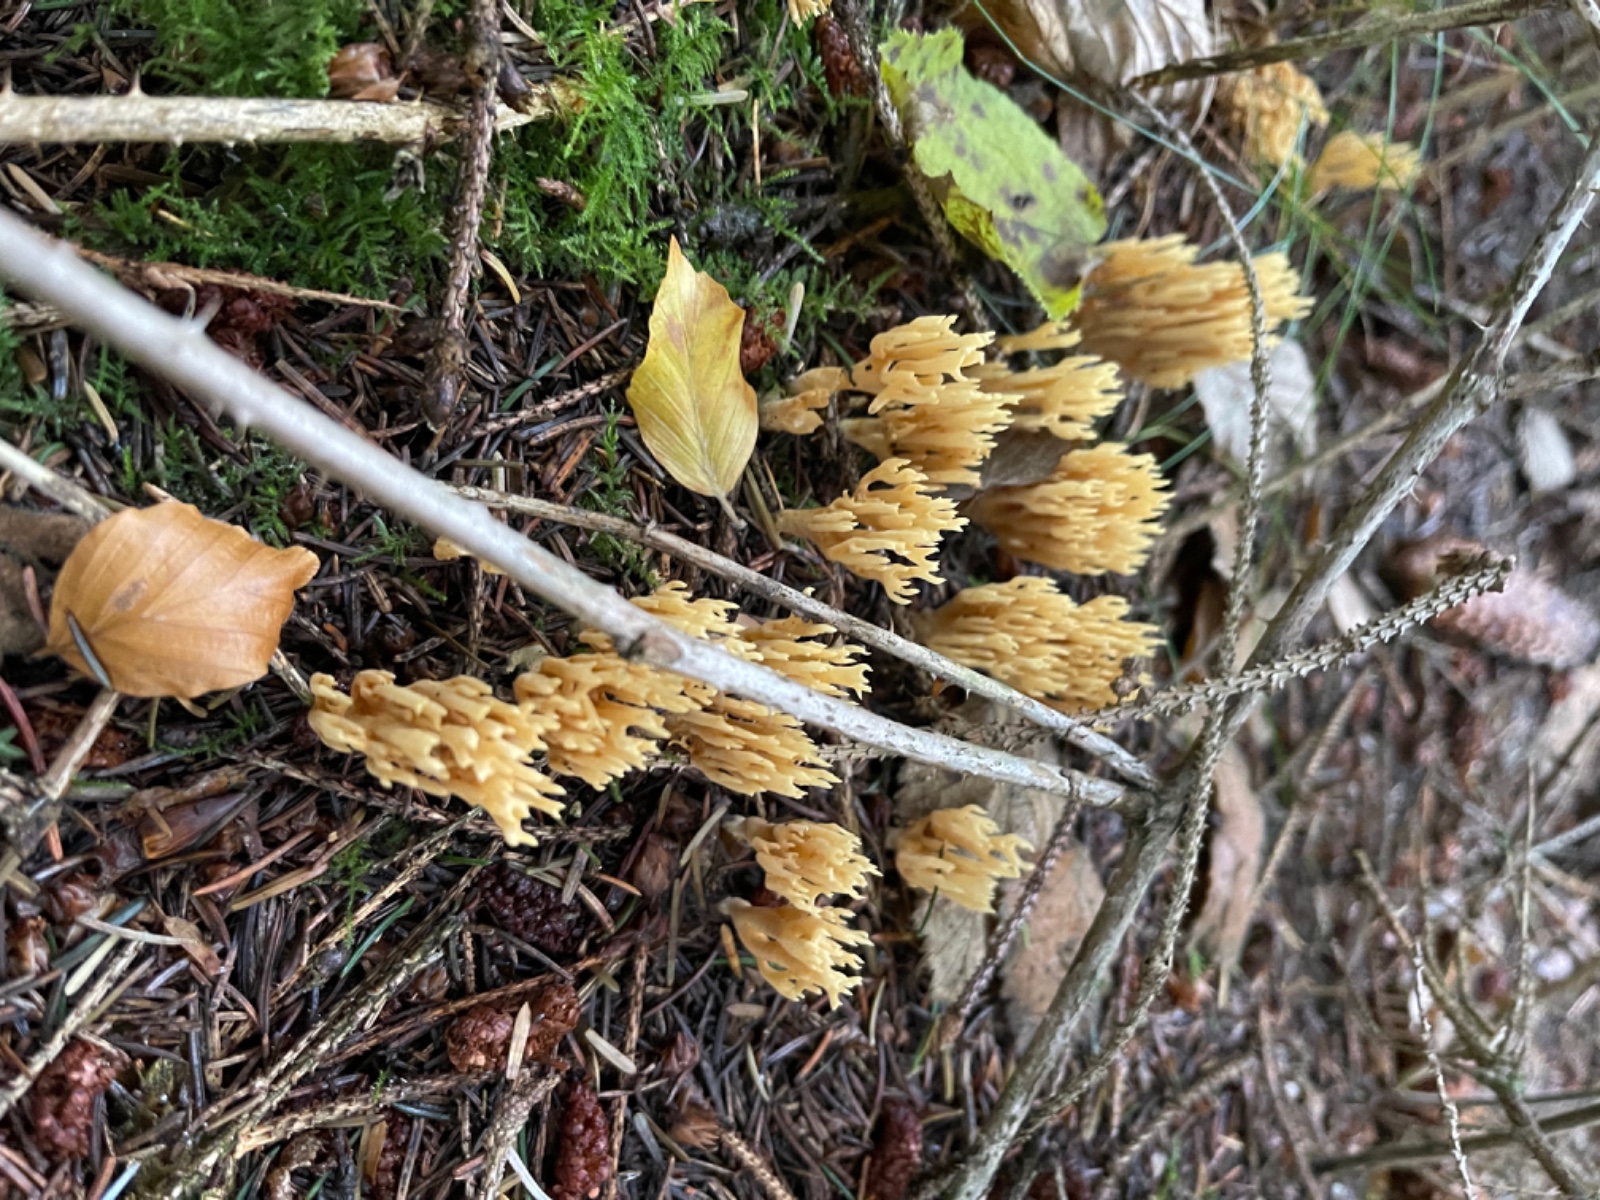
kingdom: Fungi
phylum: Basidiomycota
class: Agaricomycetes
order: Gomphales
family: Gomphaceae
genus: Phaeoclavulina
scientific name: Phaeoclavulina eumorpha
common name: gran-koralsvamp
